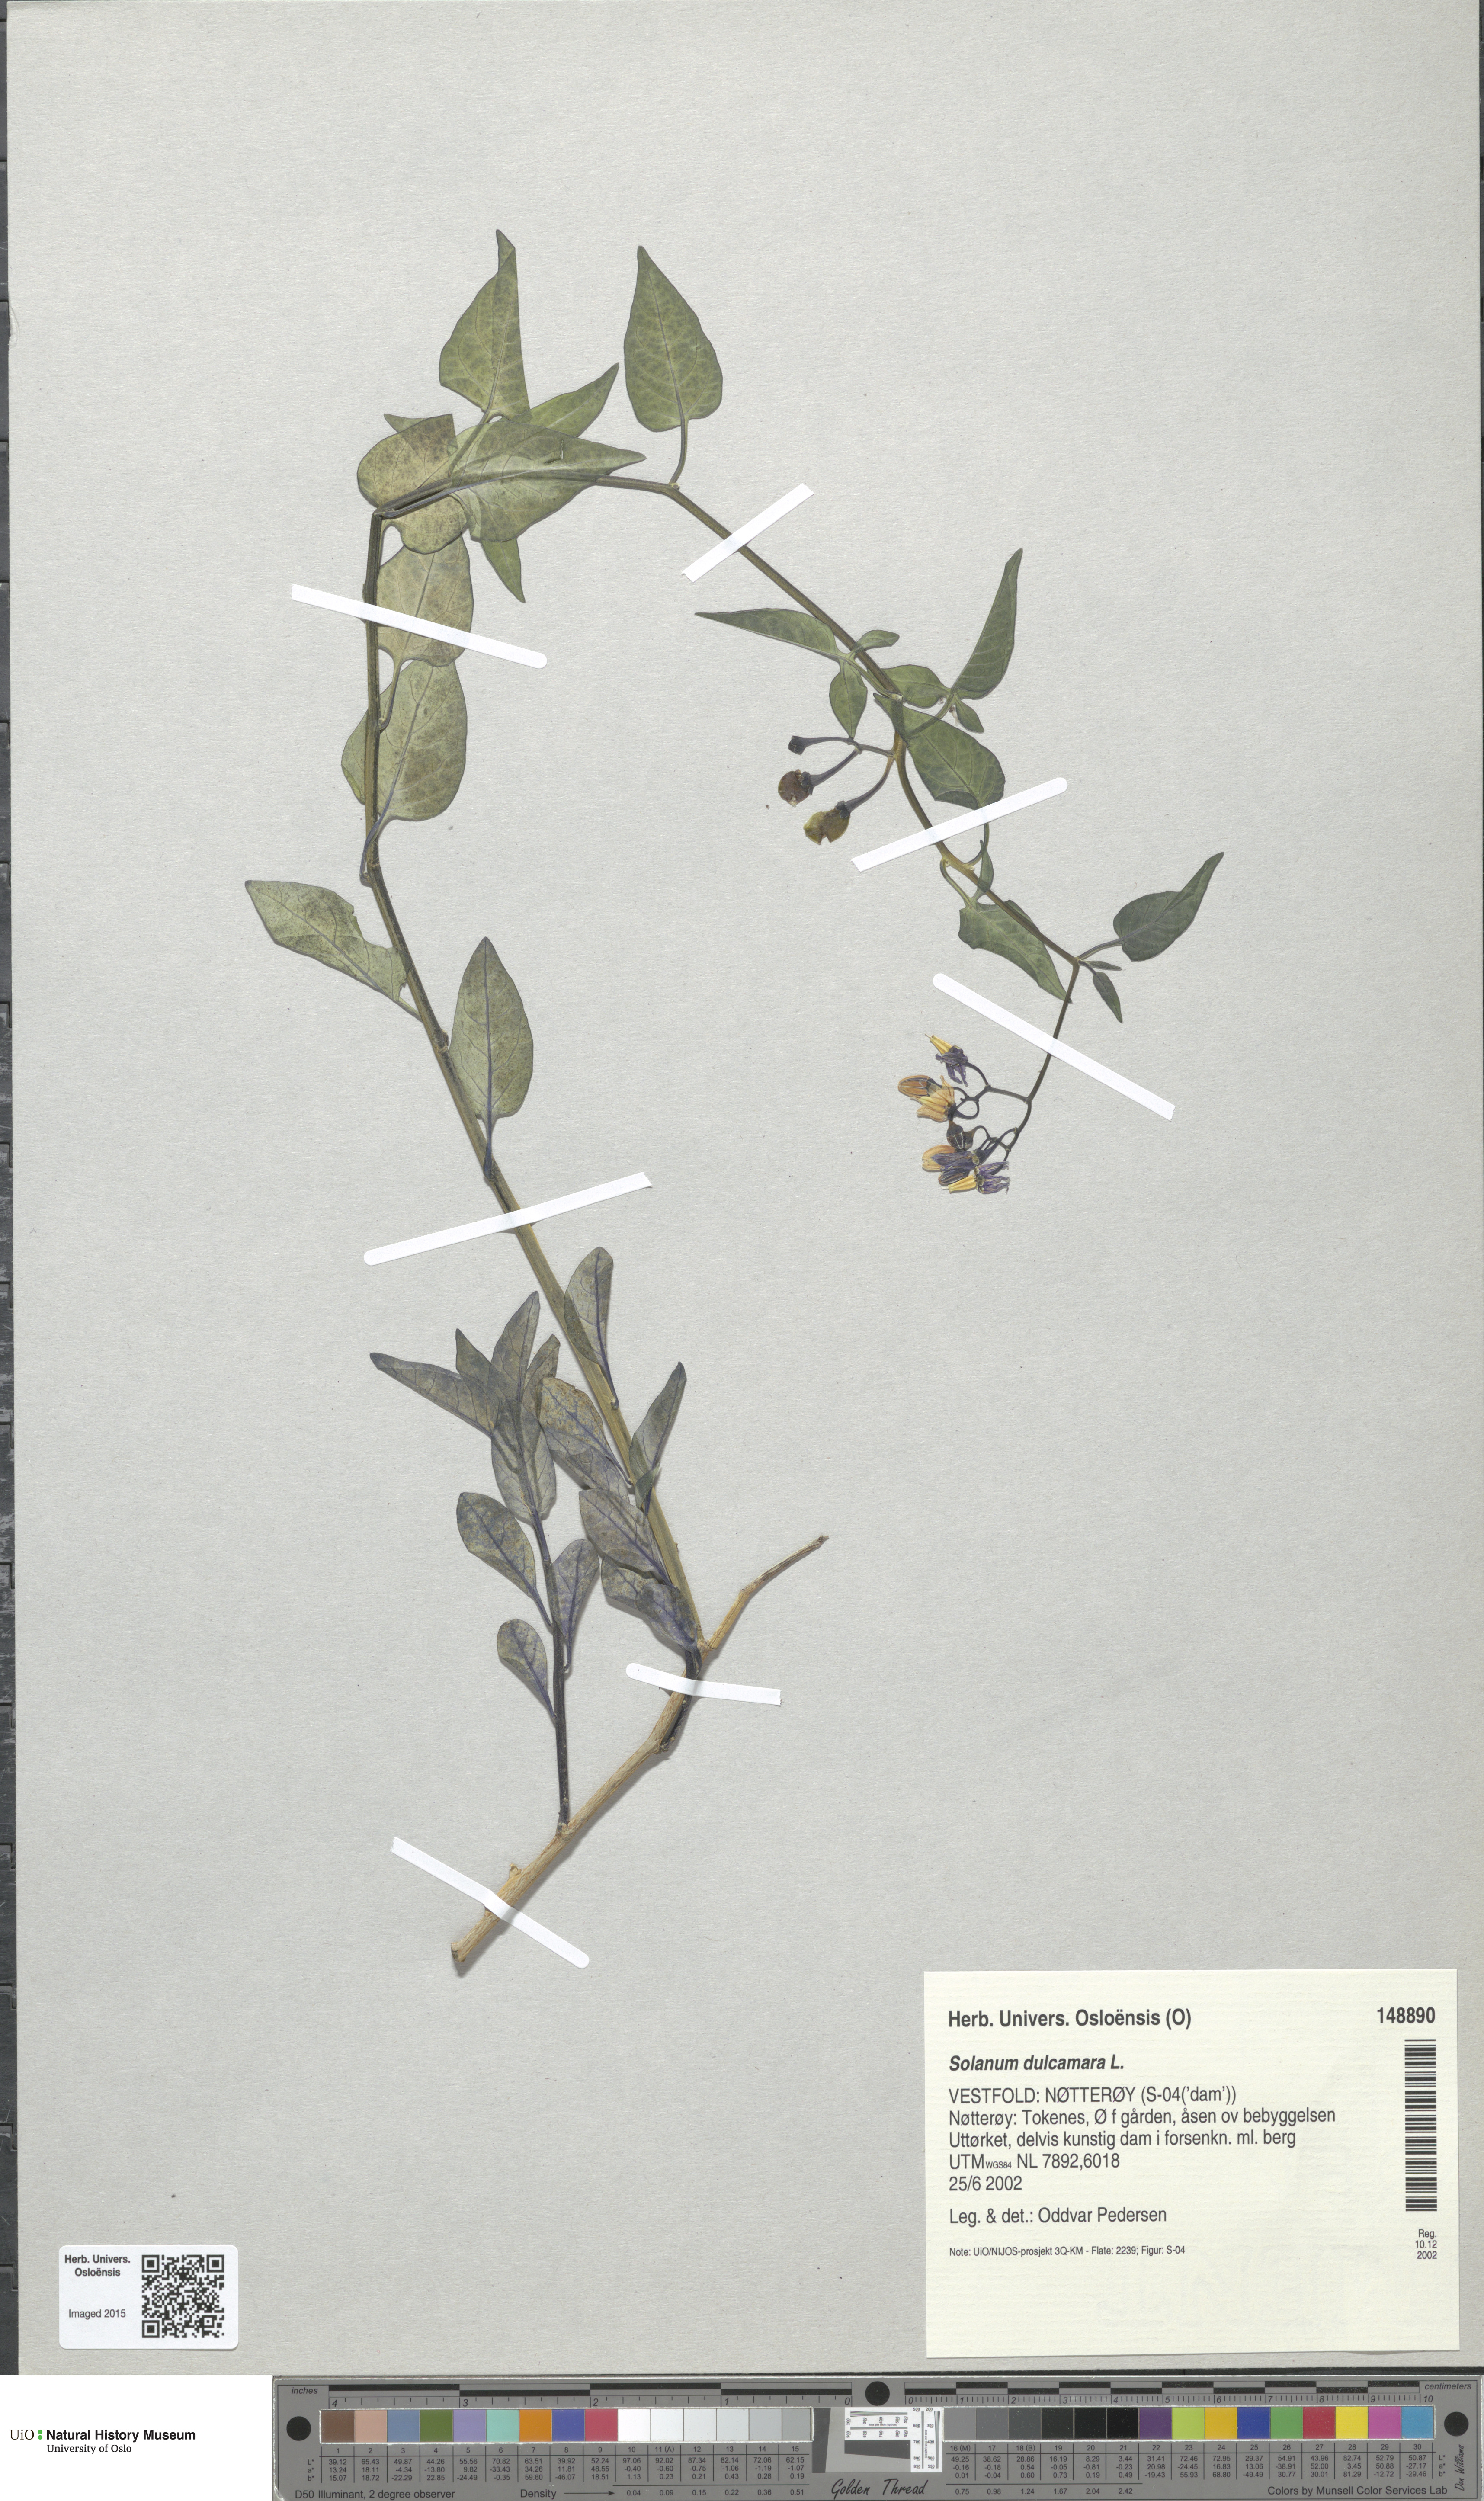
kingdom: Plantae
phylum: Tracheophyta
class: Magnoliopsida
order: Solanales
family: Solanaceae
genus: Solanum
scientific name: Solanum dulcamara
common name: Climbing nightshade
